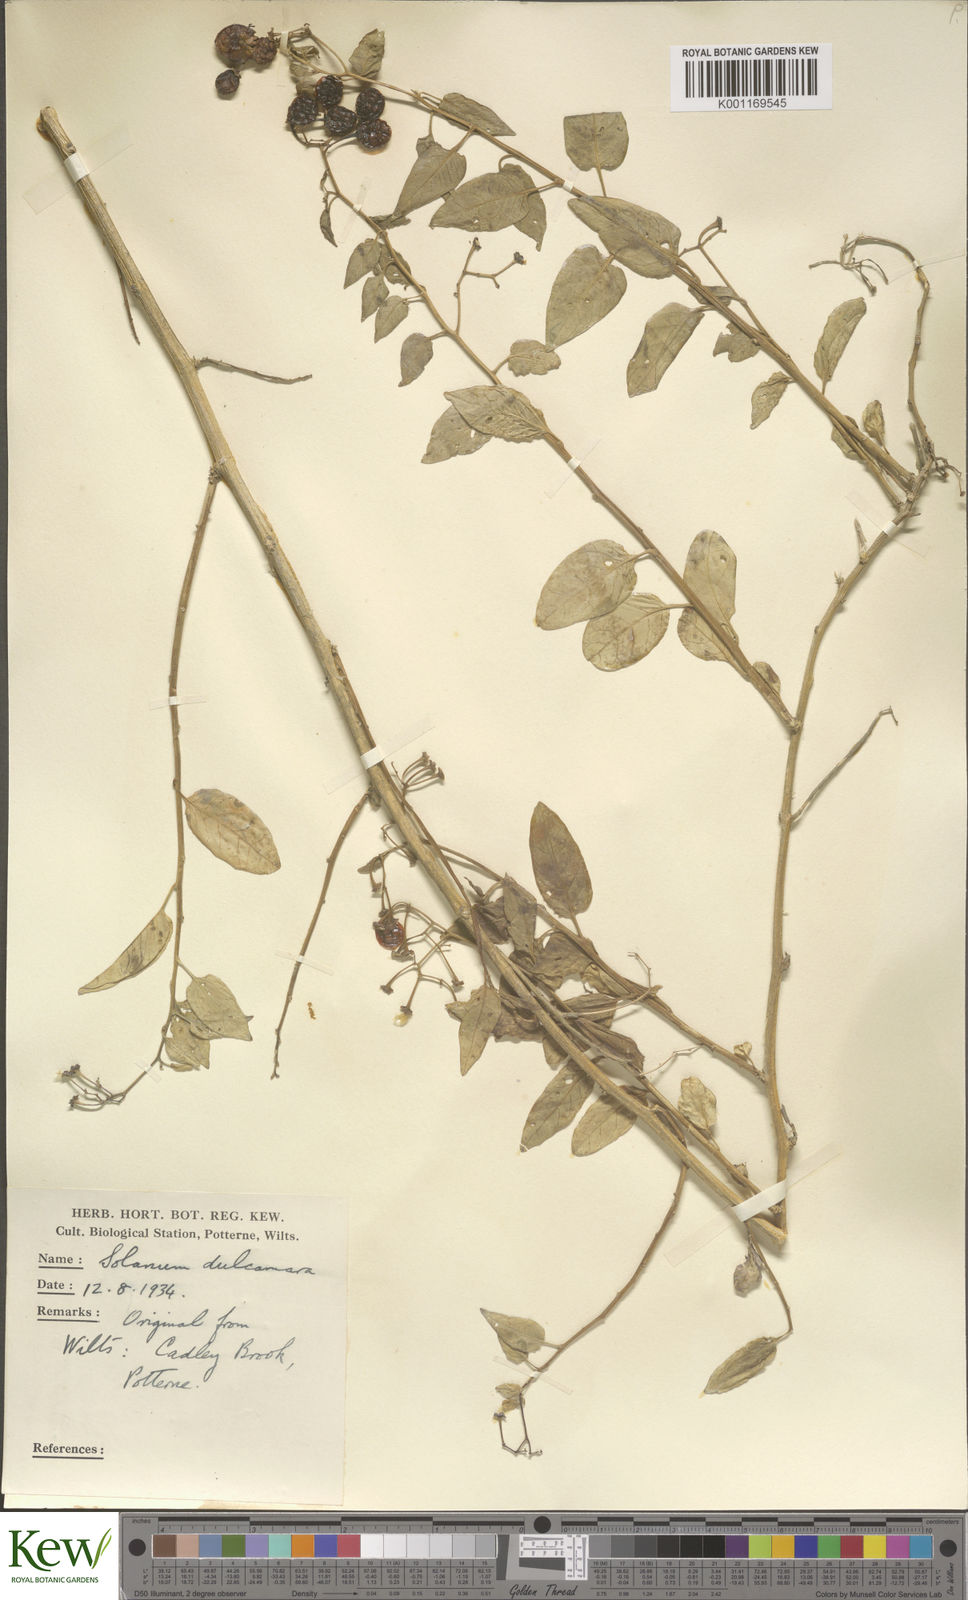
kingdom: Plantae
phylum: Tracheophyta
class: Magnoliopsida
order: Solanales
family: Solanaceae
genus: Solanum
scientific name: Solanum dulcamara
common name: Climbing nightshade
